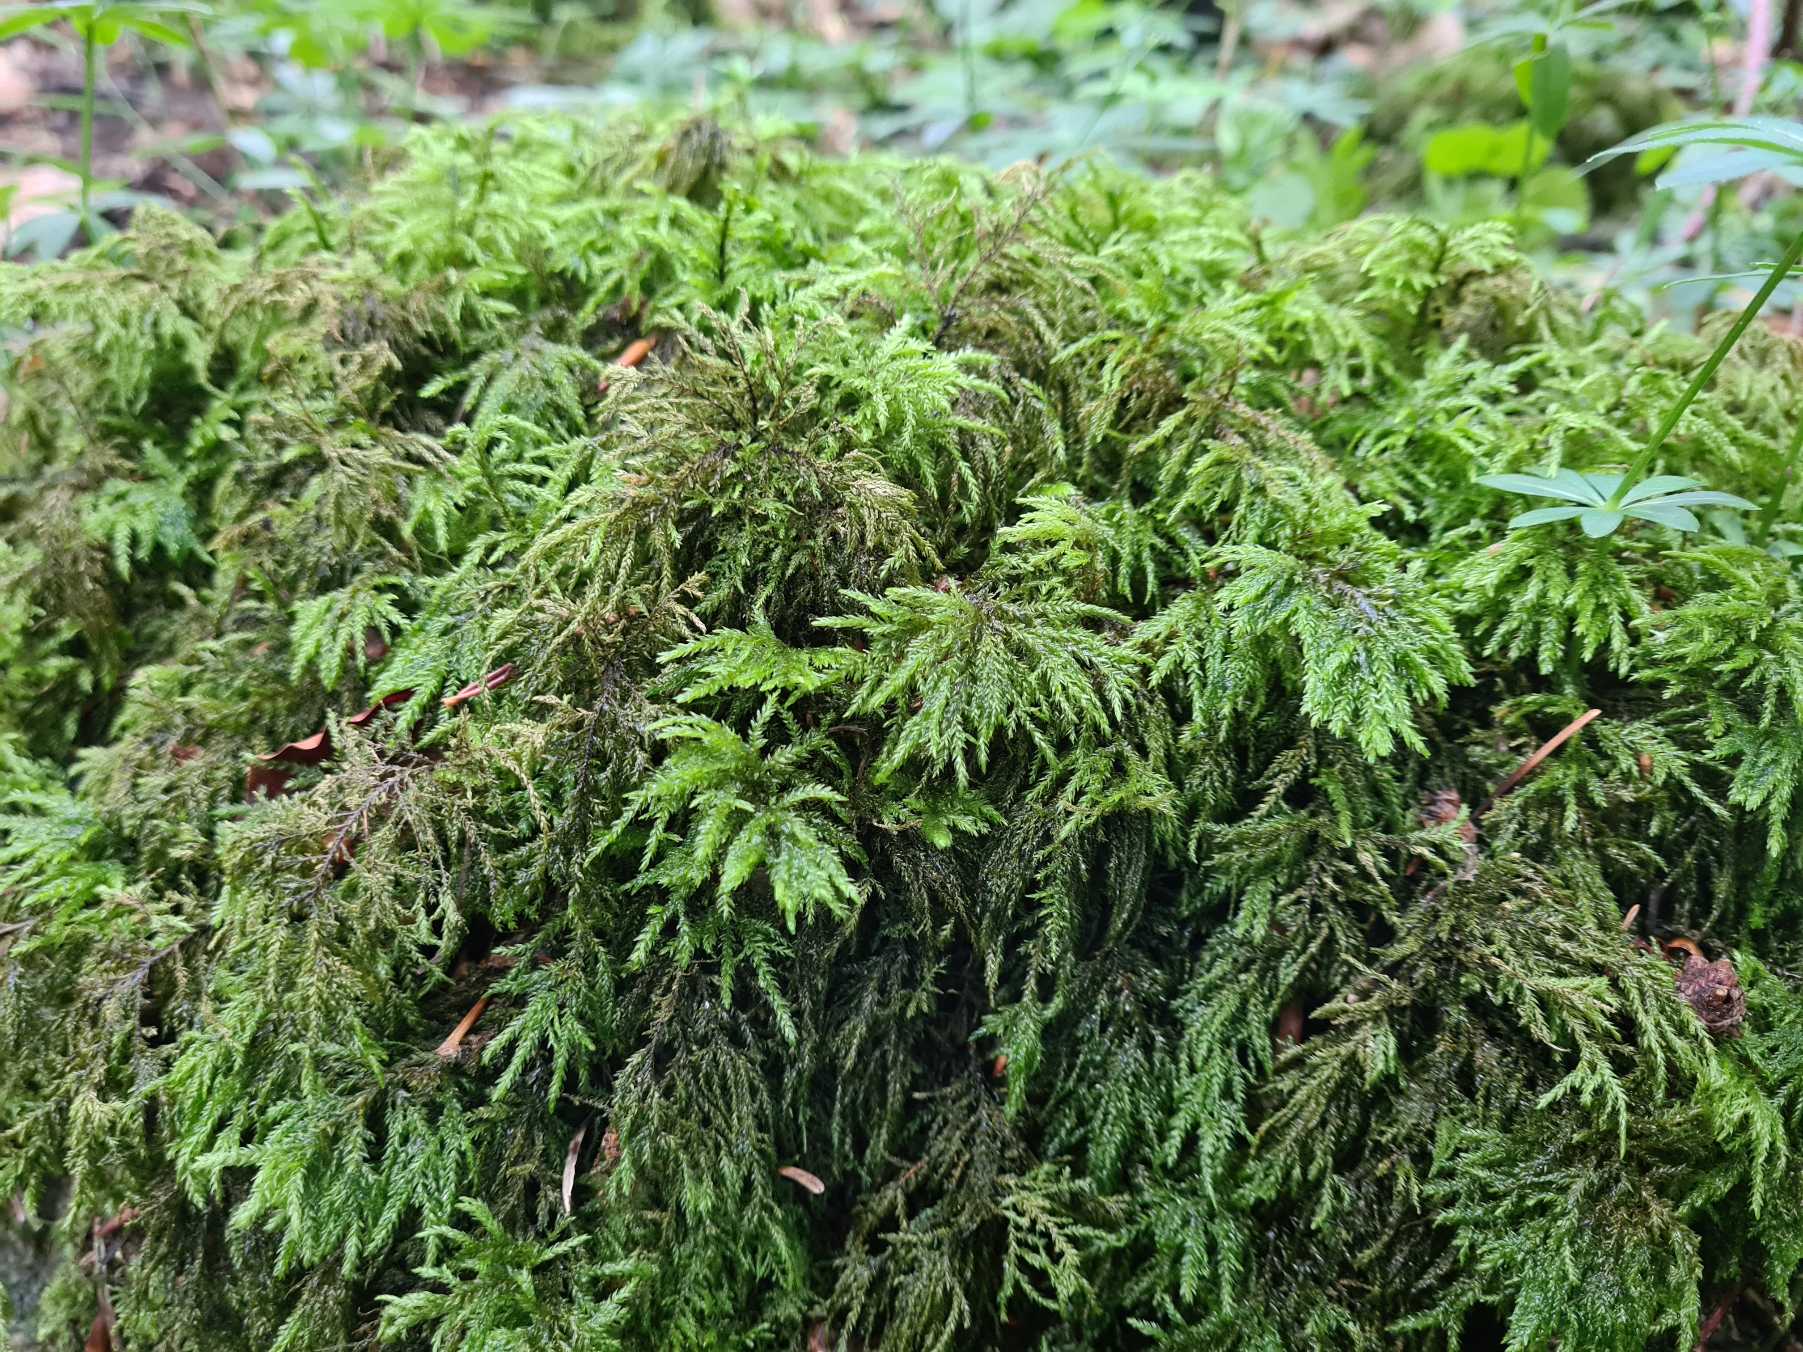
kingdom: Plantae
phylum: Bryophyta
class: Bryopsida
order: Hypnales
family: Neckeraceae
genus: Thamnobryum
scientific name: Thamnobryum alopecurum
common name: Mat bækkost
